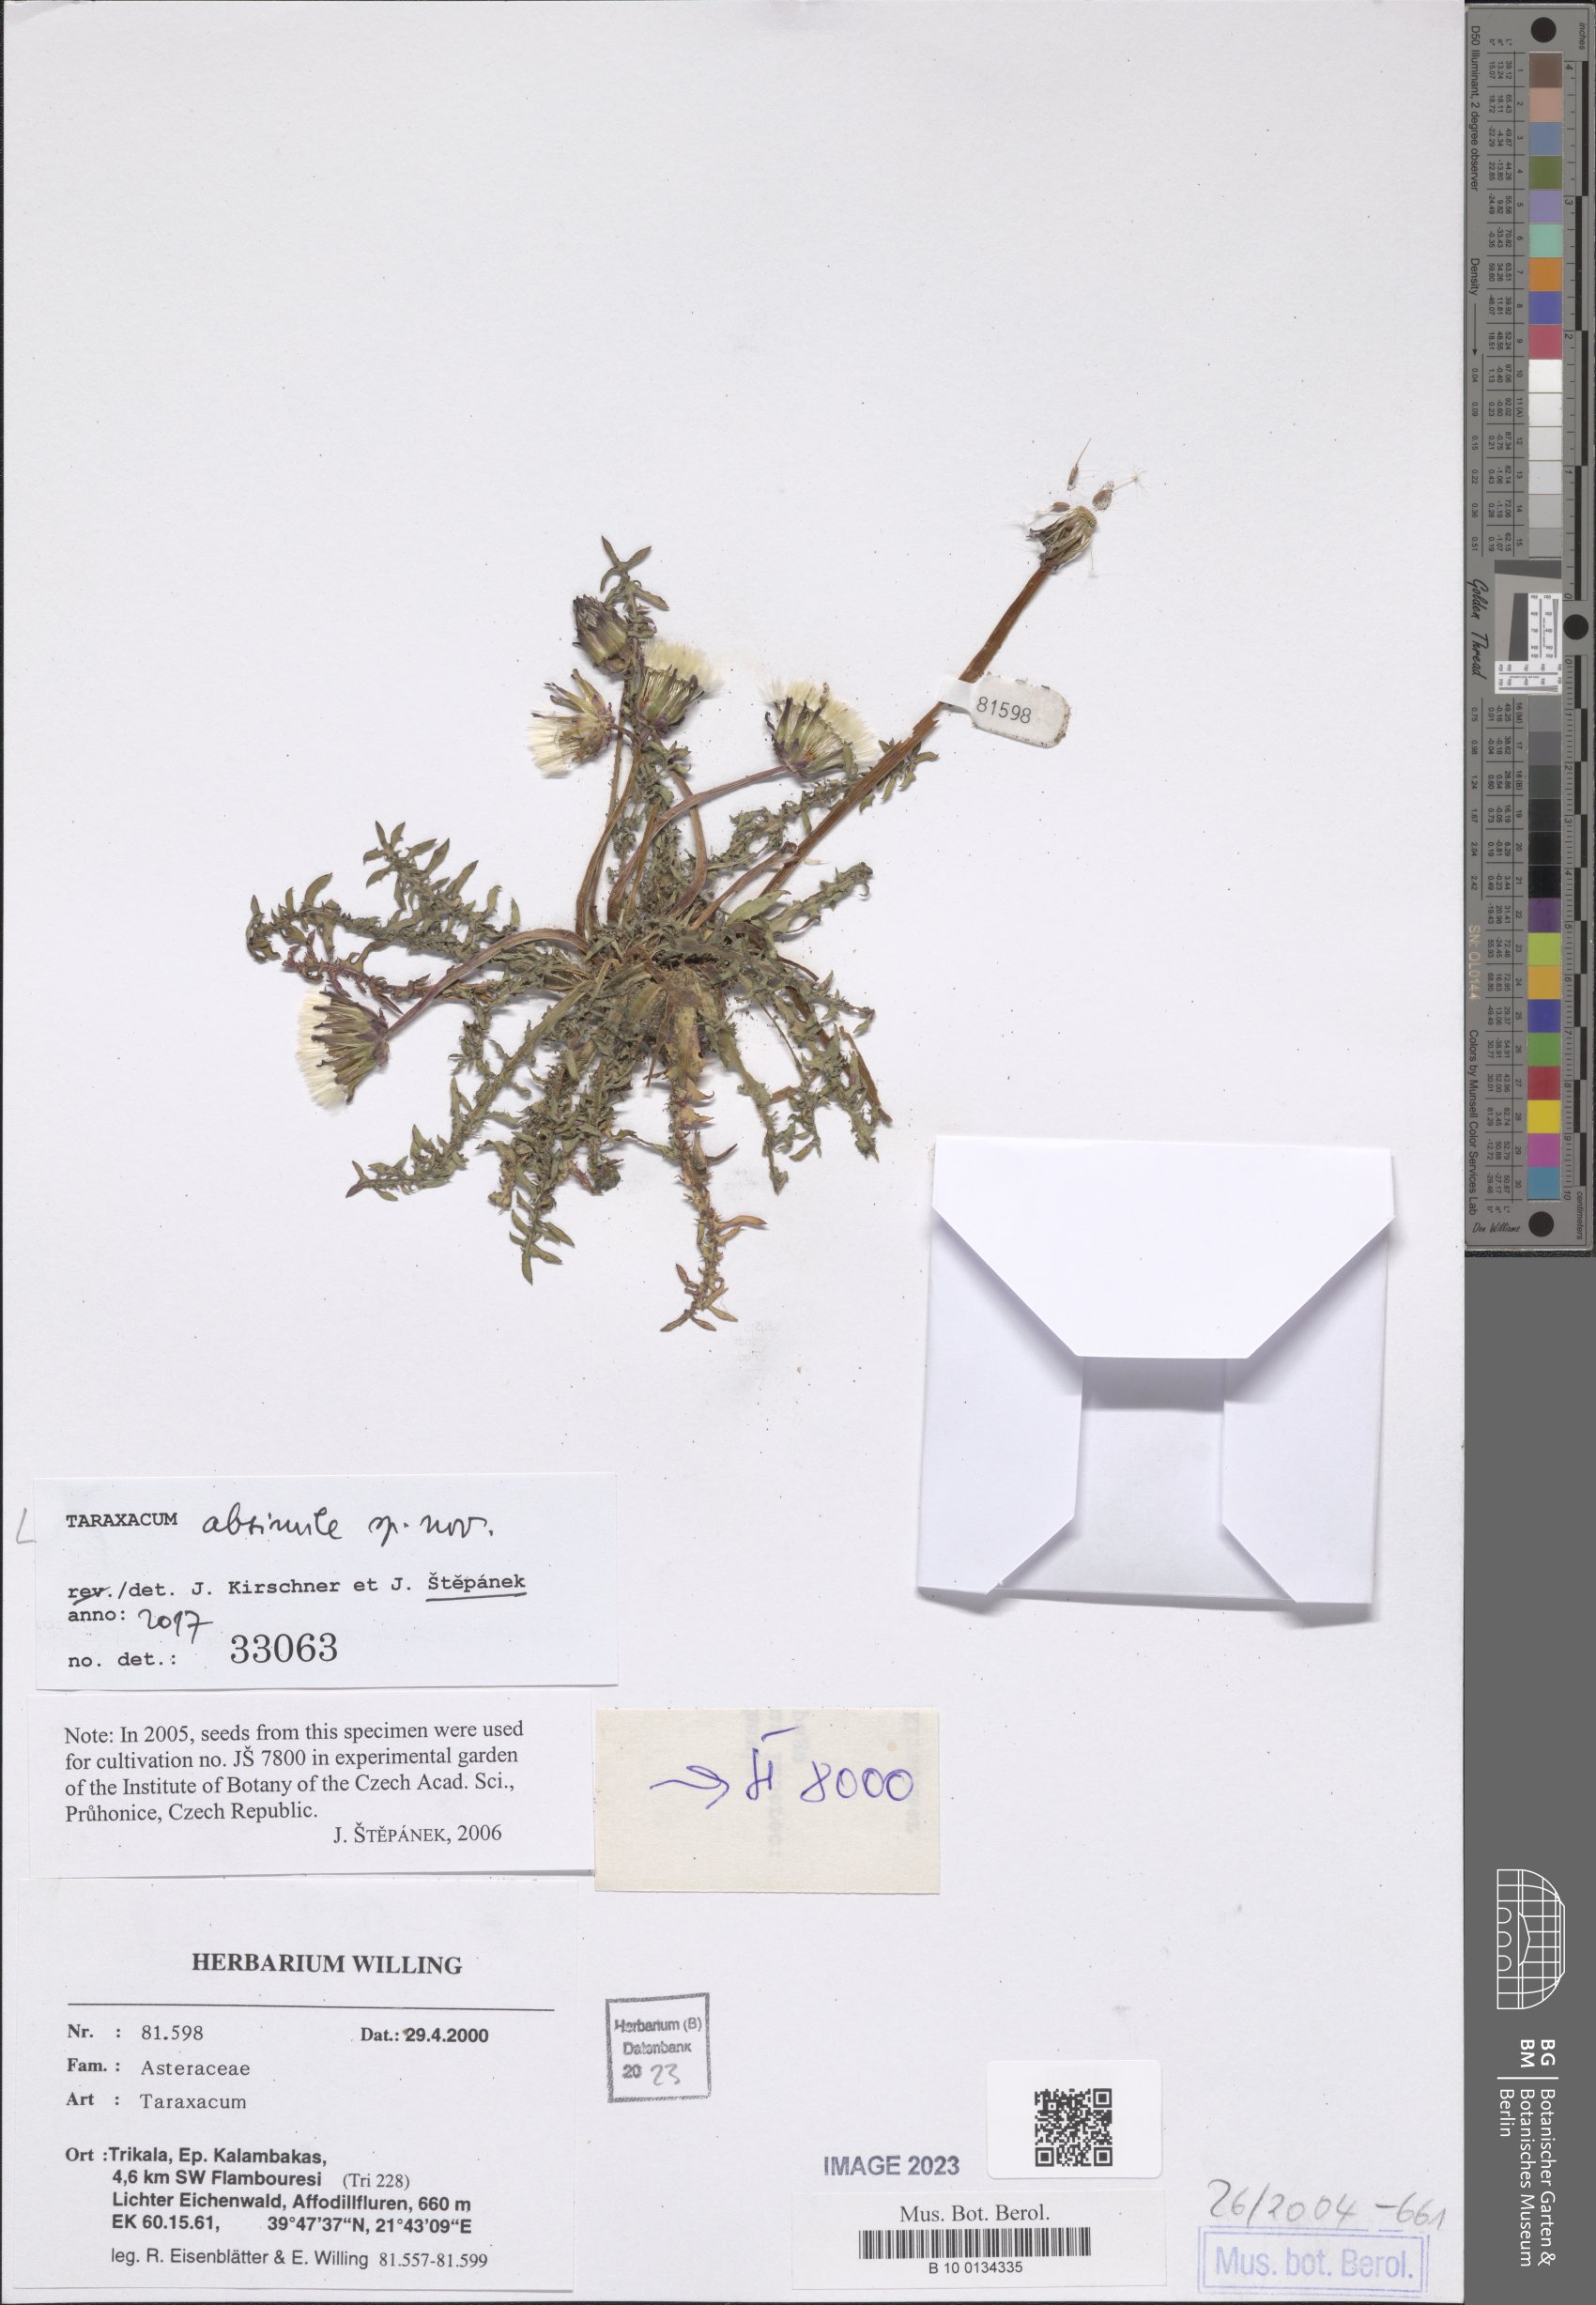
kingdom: Plantae
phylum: Tracheophyta
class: Magnoliopsida
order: Asterales
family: Asteraceae
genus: Taraxacum
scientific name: Taraxacum longisquameum
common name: Elongate-bracted dandelion
